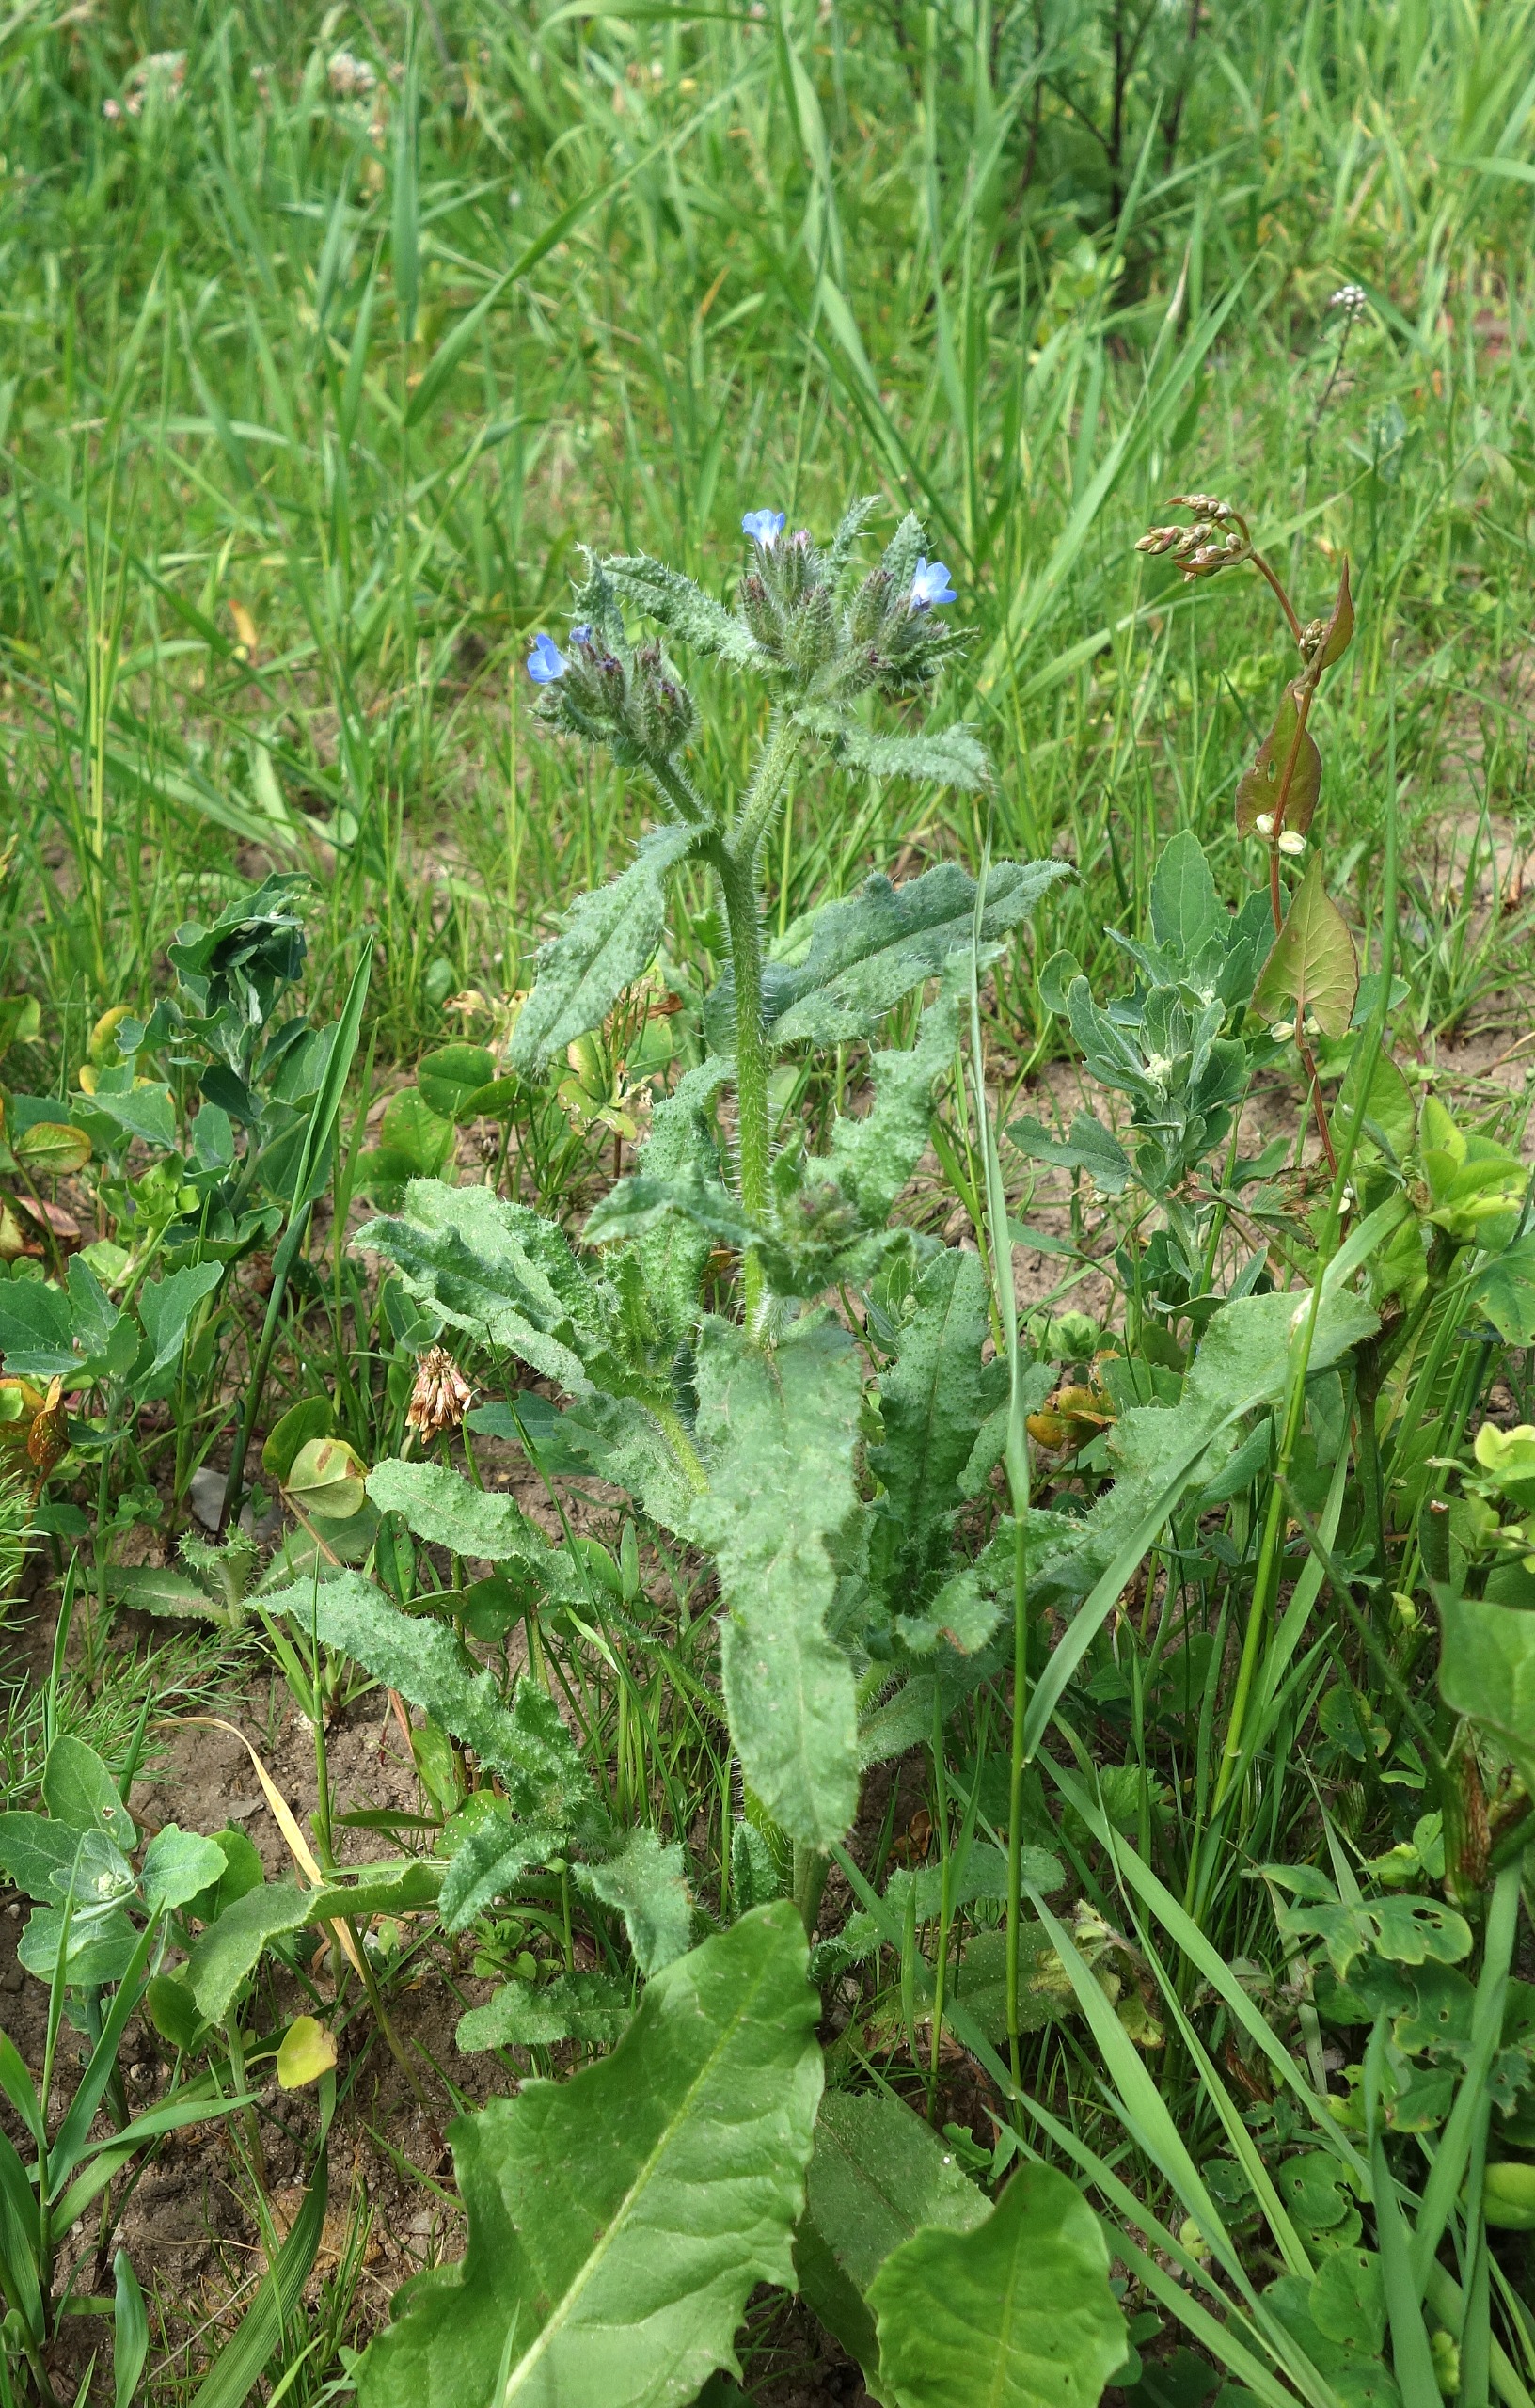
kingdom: Plantae
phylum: Tracheophyta
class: Magnoliopsida
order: Boraginales
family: Boraginaceae
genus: Lycopsis
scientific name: Lycopsis arvensis
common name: Krumhals
